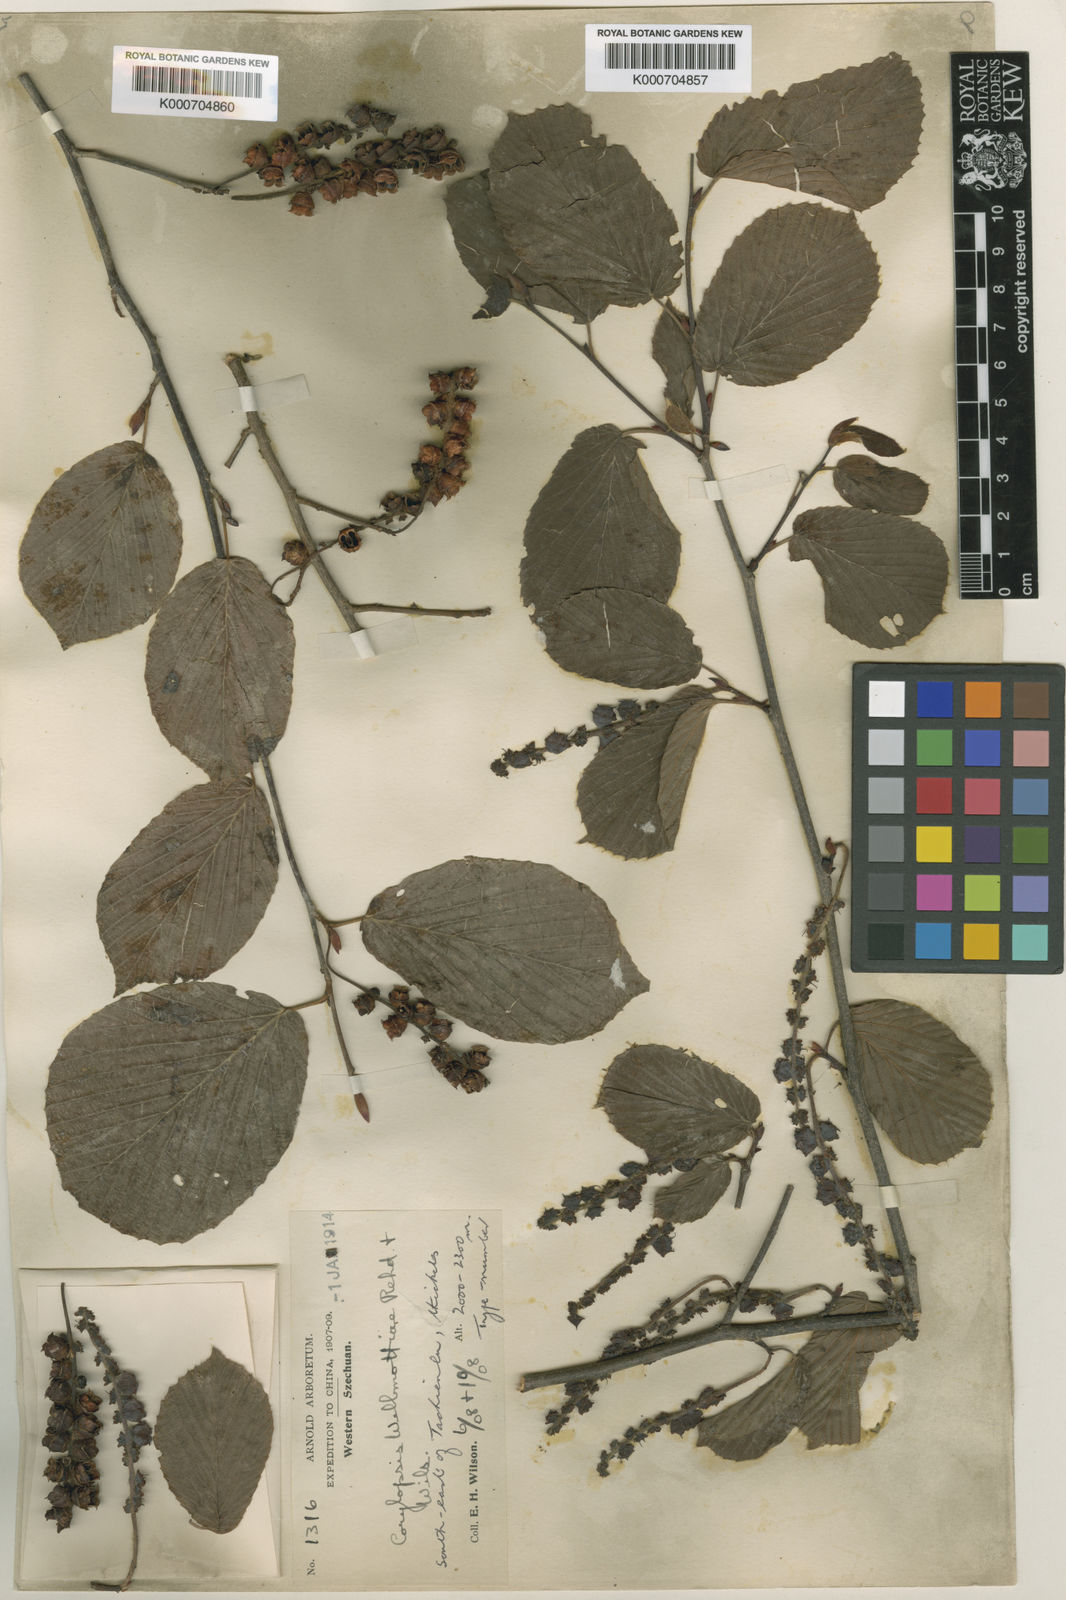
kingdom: Plantae
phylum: Tracheophyta
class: Magnoliopsida
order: Saxifragales
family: Hamamelidaceae
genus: Corylopsis
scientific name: Corylopsis sinensis
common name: Winter hazel
